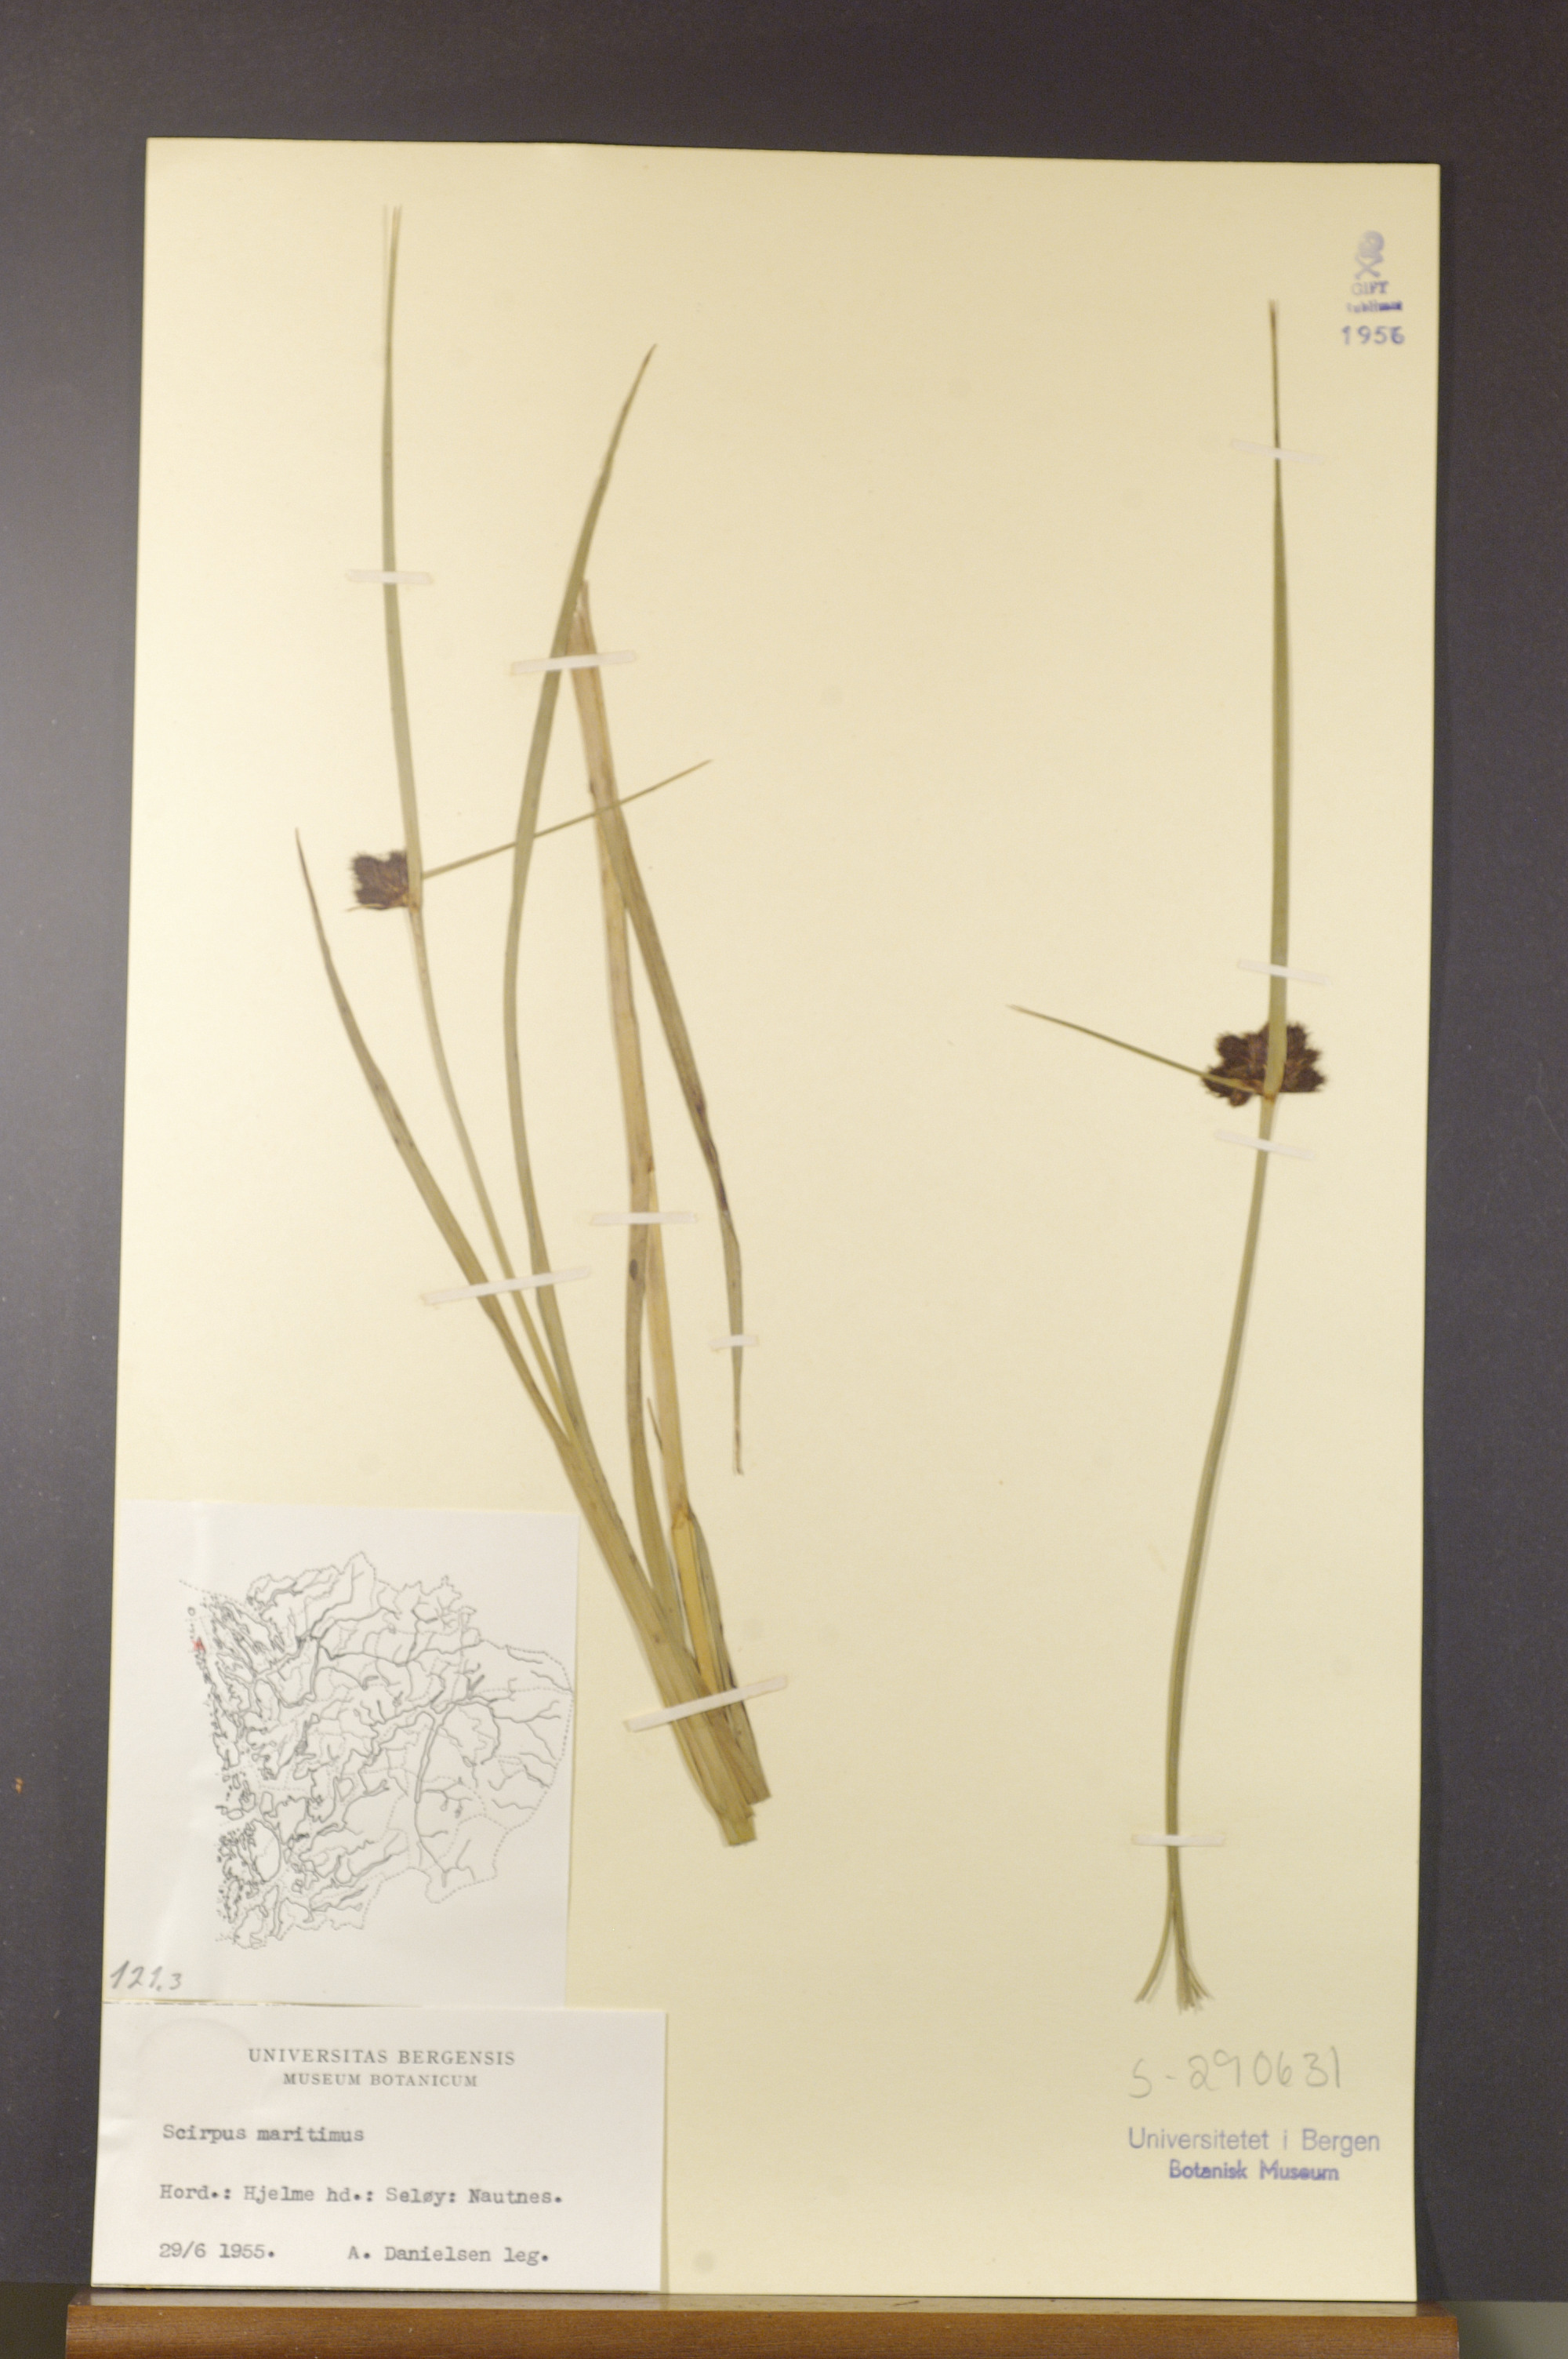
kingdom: Plantae
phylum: Tracheophyta
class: Liliopsida
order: Poales
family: Cyperaceae
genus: Bolboschoenus
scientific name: Bolboschoenus maritimus
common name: Sea club-rush
